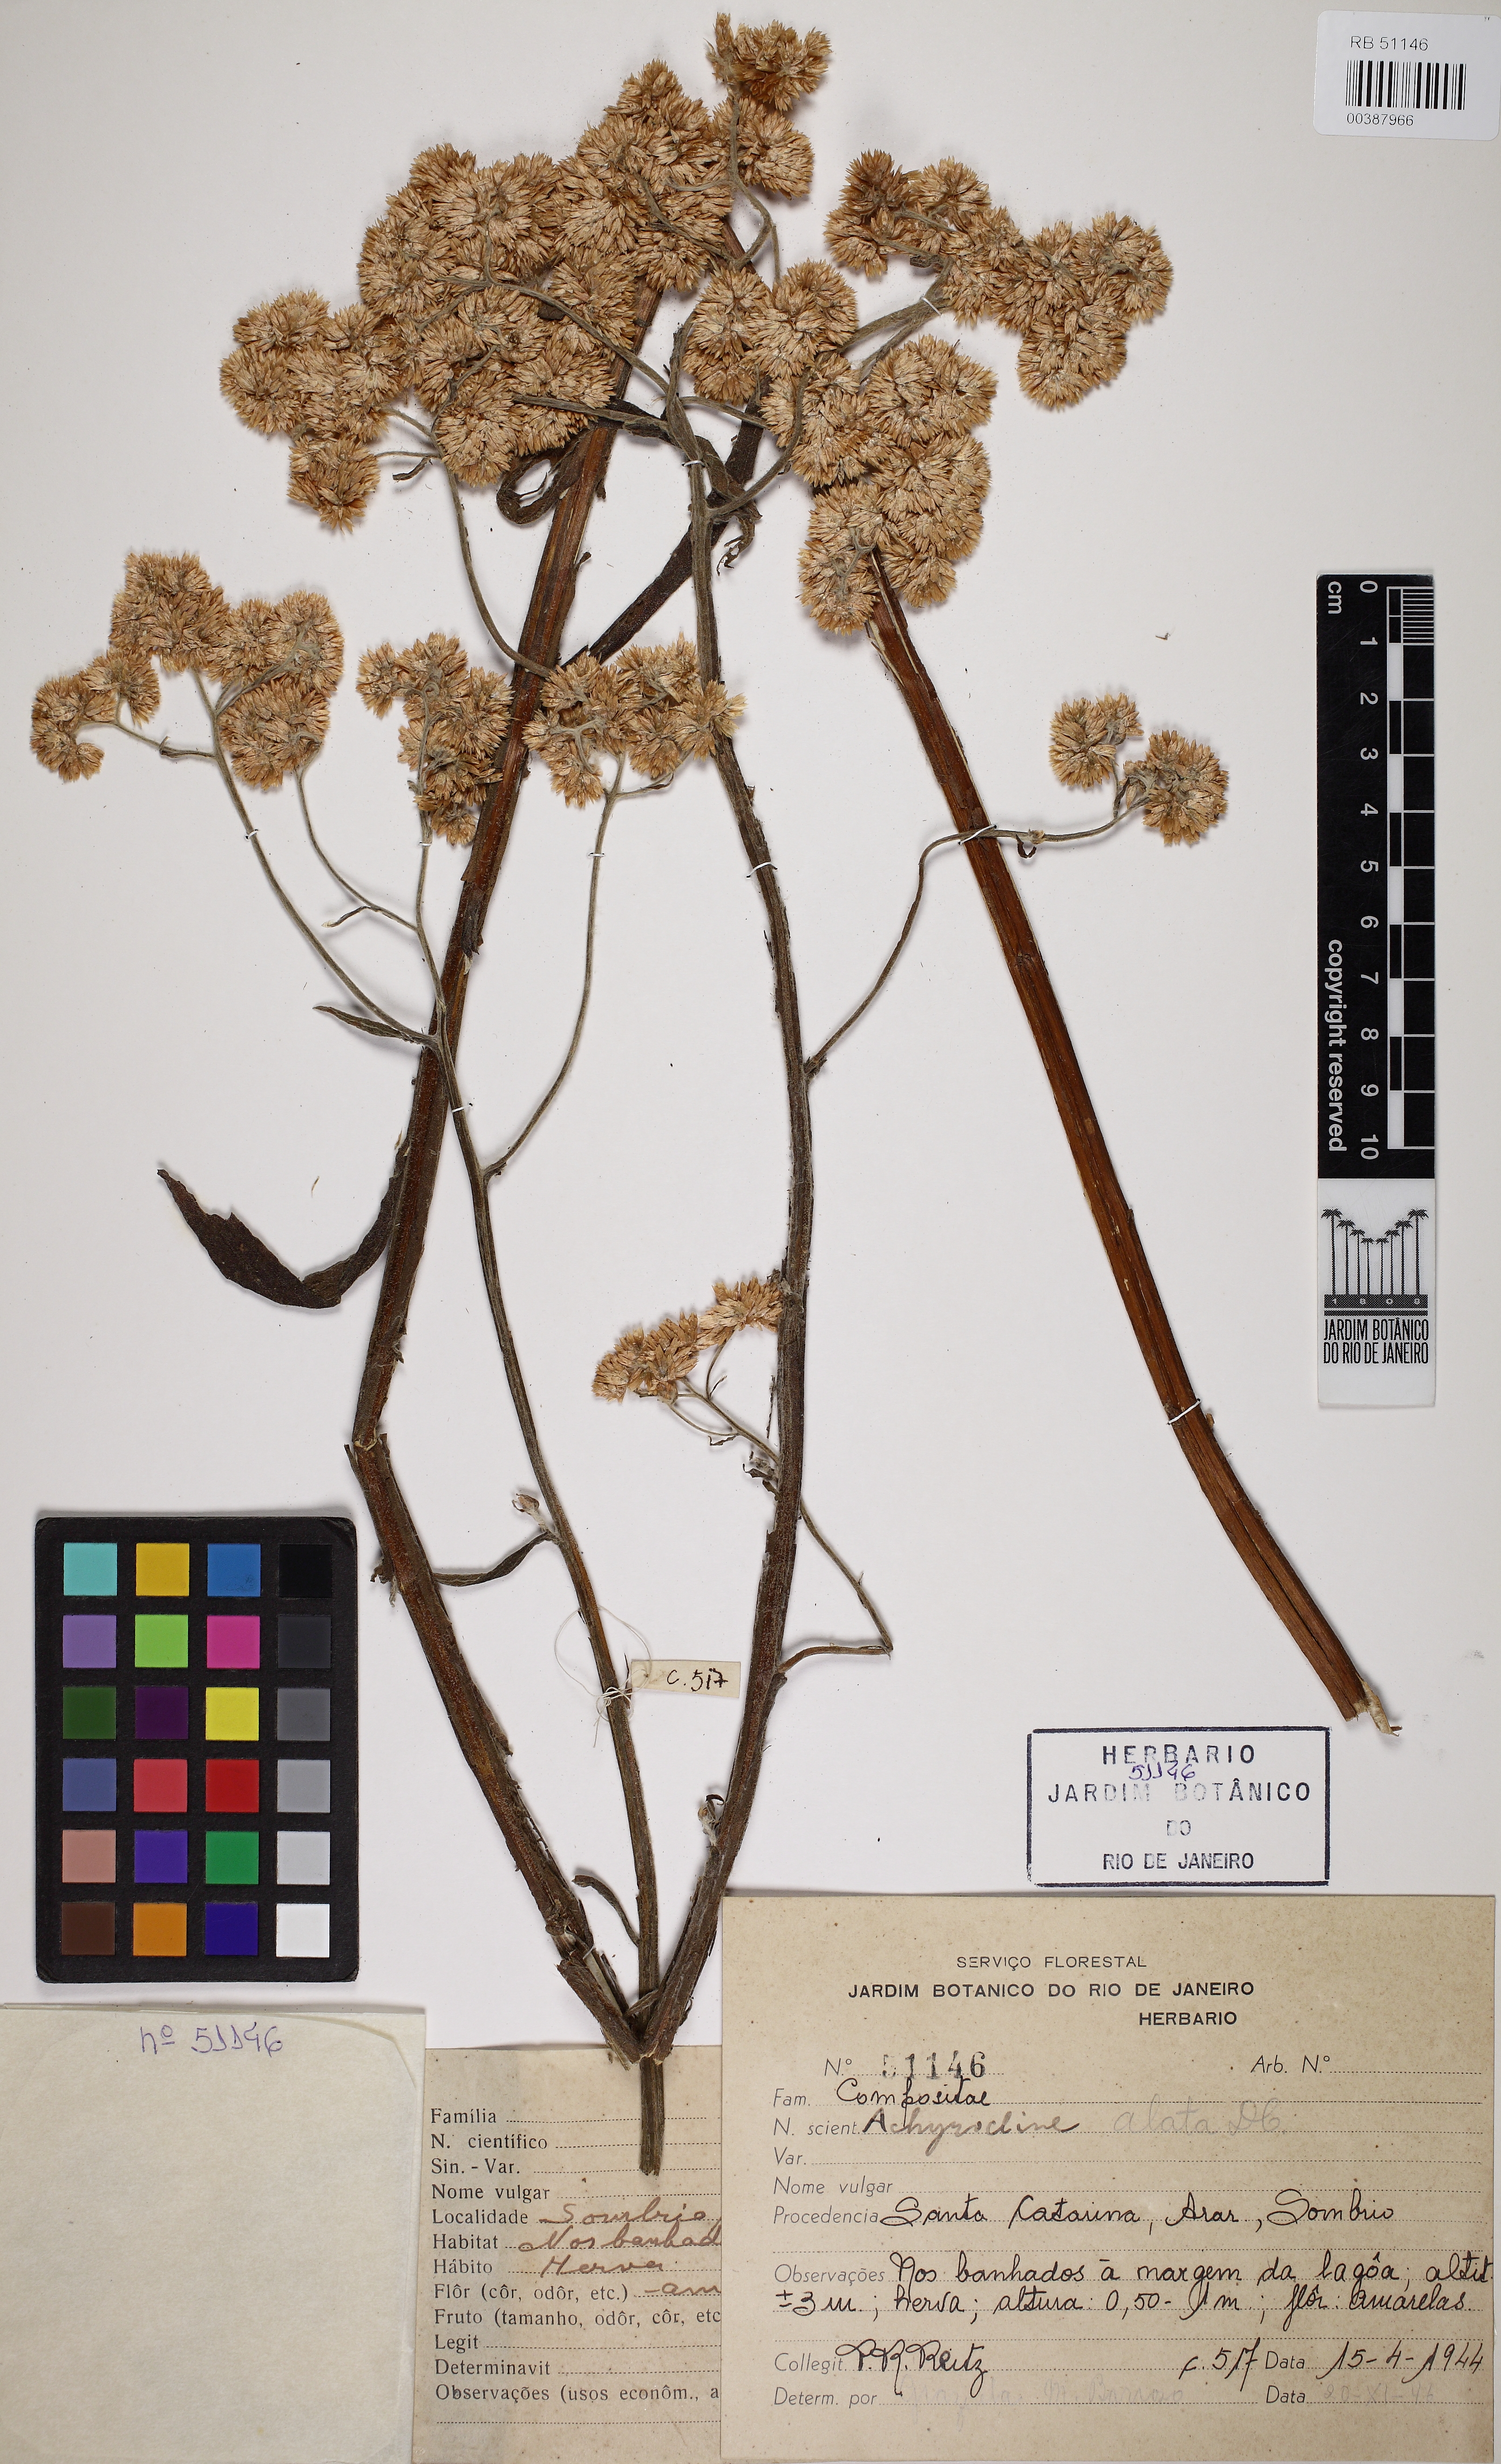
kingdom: Plantae
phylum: Tracheophyta
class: Magnoliopsida
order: Asterales
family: Asteraceae
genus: Achyrocline
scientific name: Achyrocline alata
